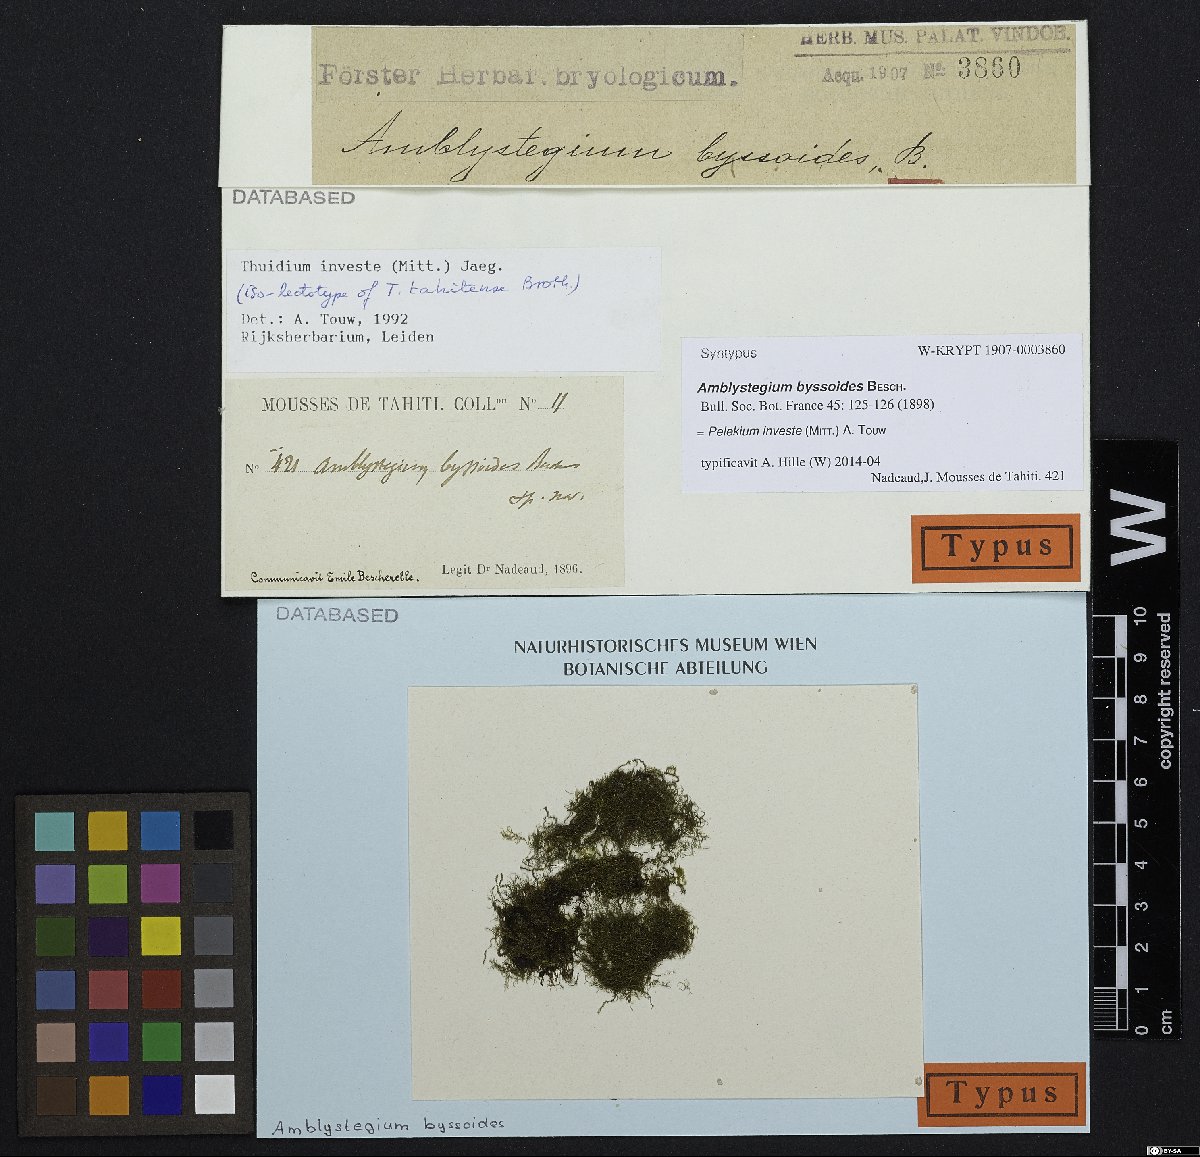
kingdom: Plantae
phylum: Bryophyta
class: Bryopsida
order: Hypnales
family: Thuidiaceae
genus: Pelekium
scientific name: Pelekium investe
